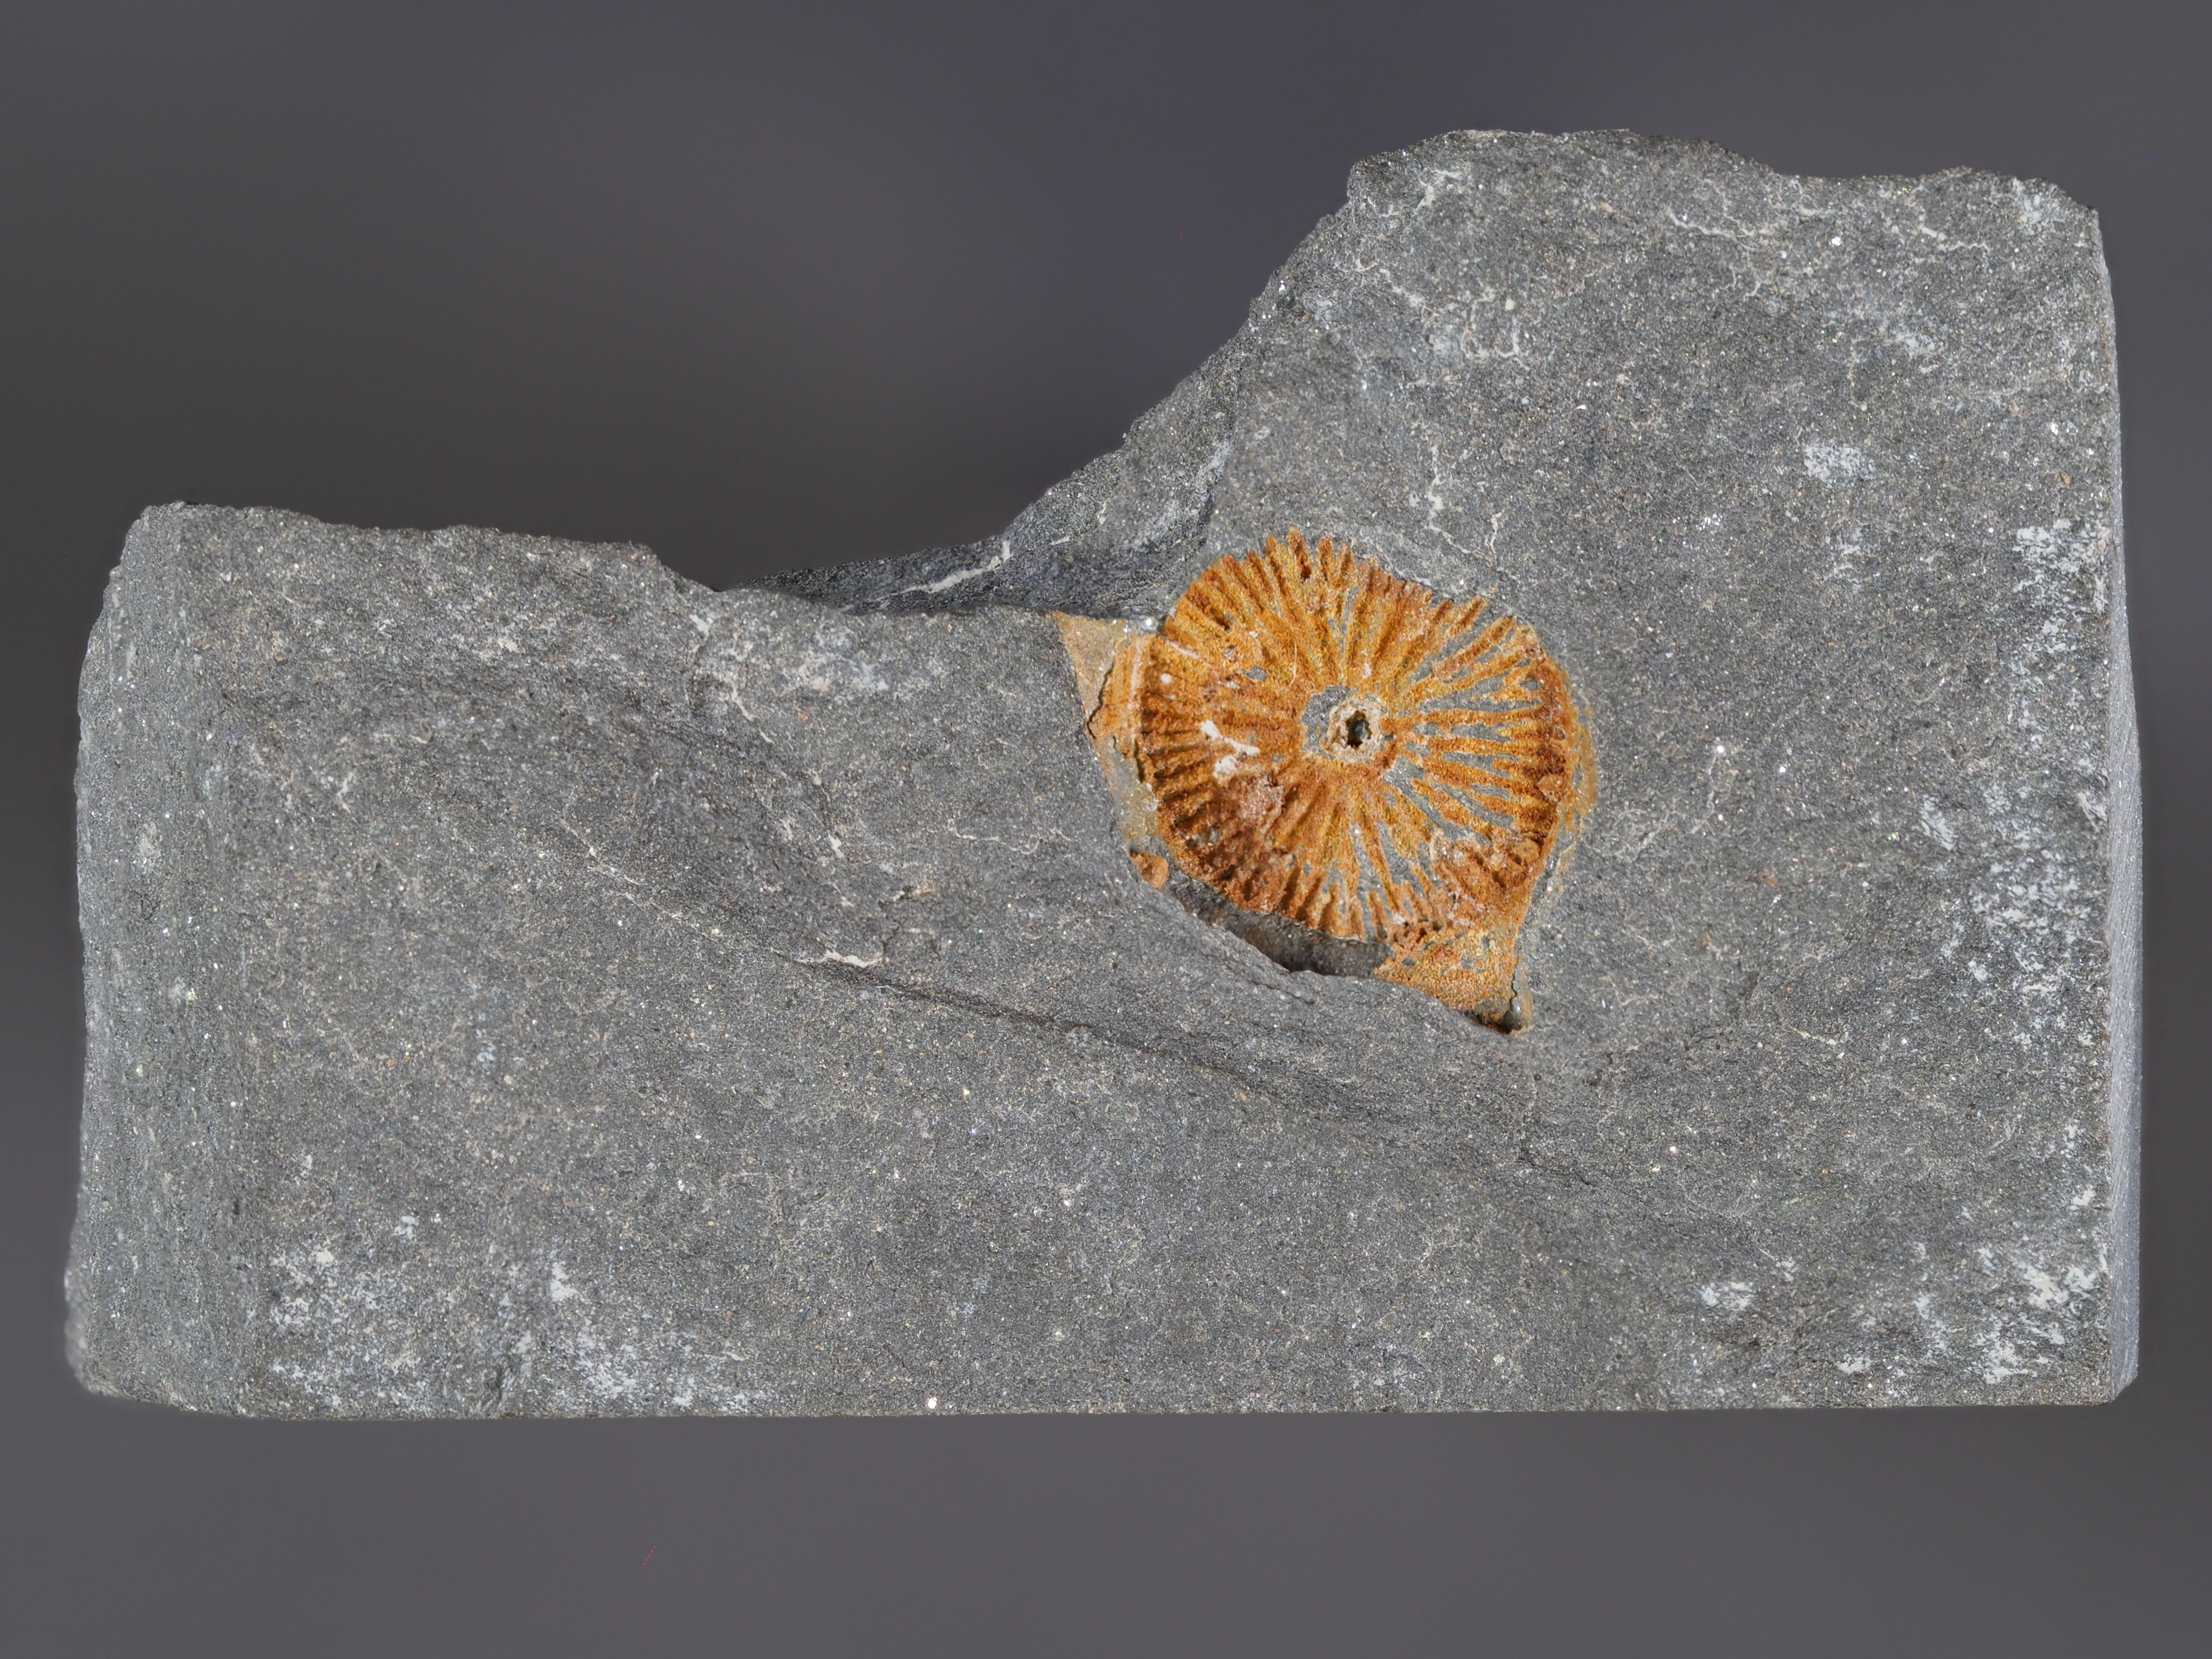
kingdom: Animalia
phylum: Mollusca
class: Bivalvia
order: Modiomorphida
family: Modiomorphidae
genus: Modiomorpha
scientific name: Modiomorpha
